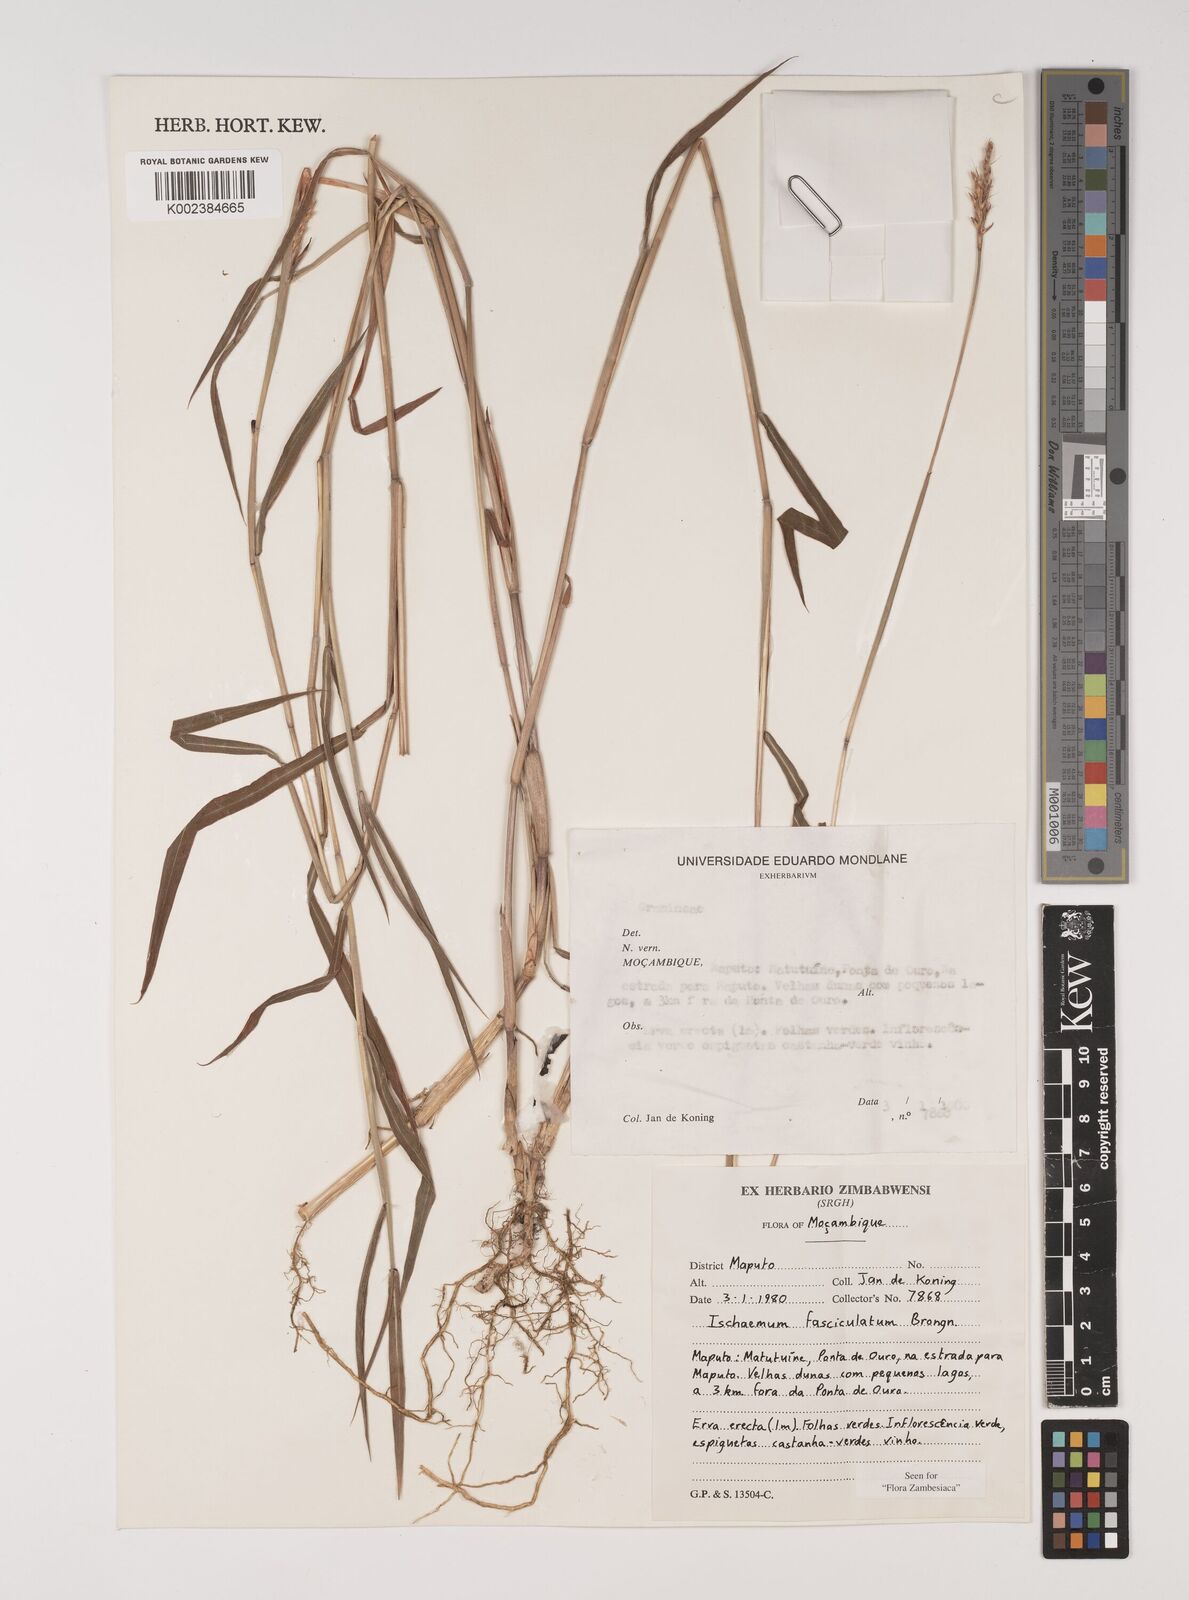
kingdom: Plantae
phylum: Tracheophyta
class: Liliopsida
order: Poales
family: Poaceae
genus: Ischaemum
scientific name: Ischaemum
